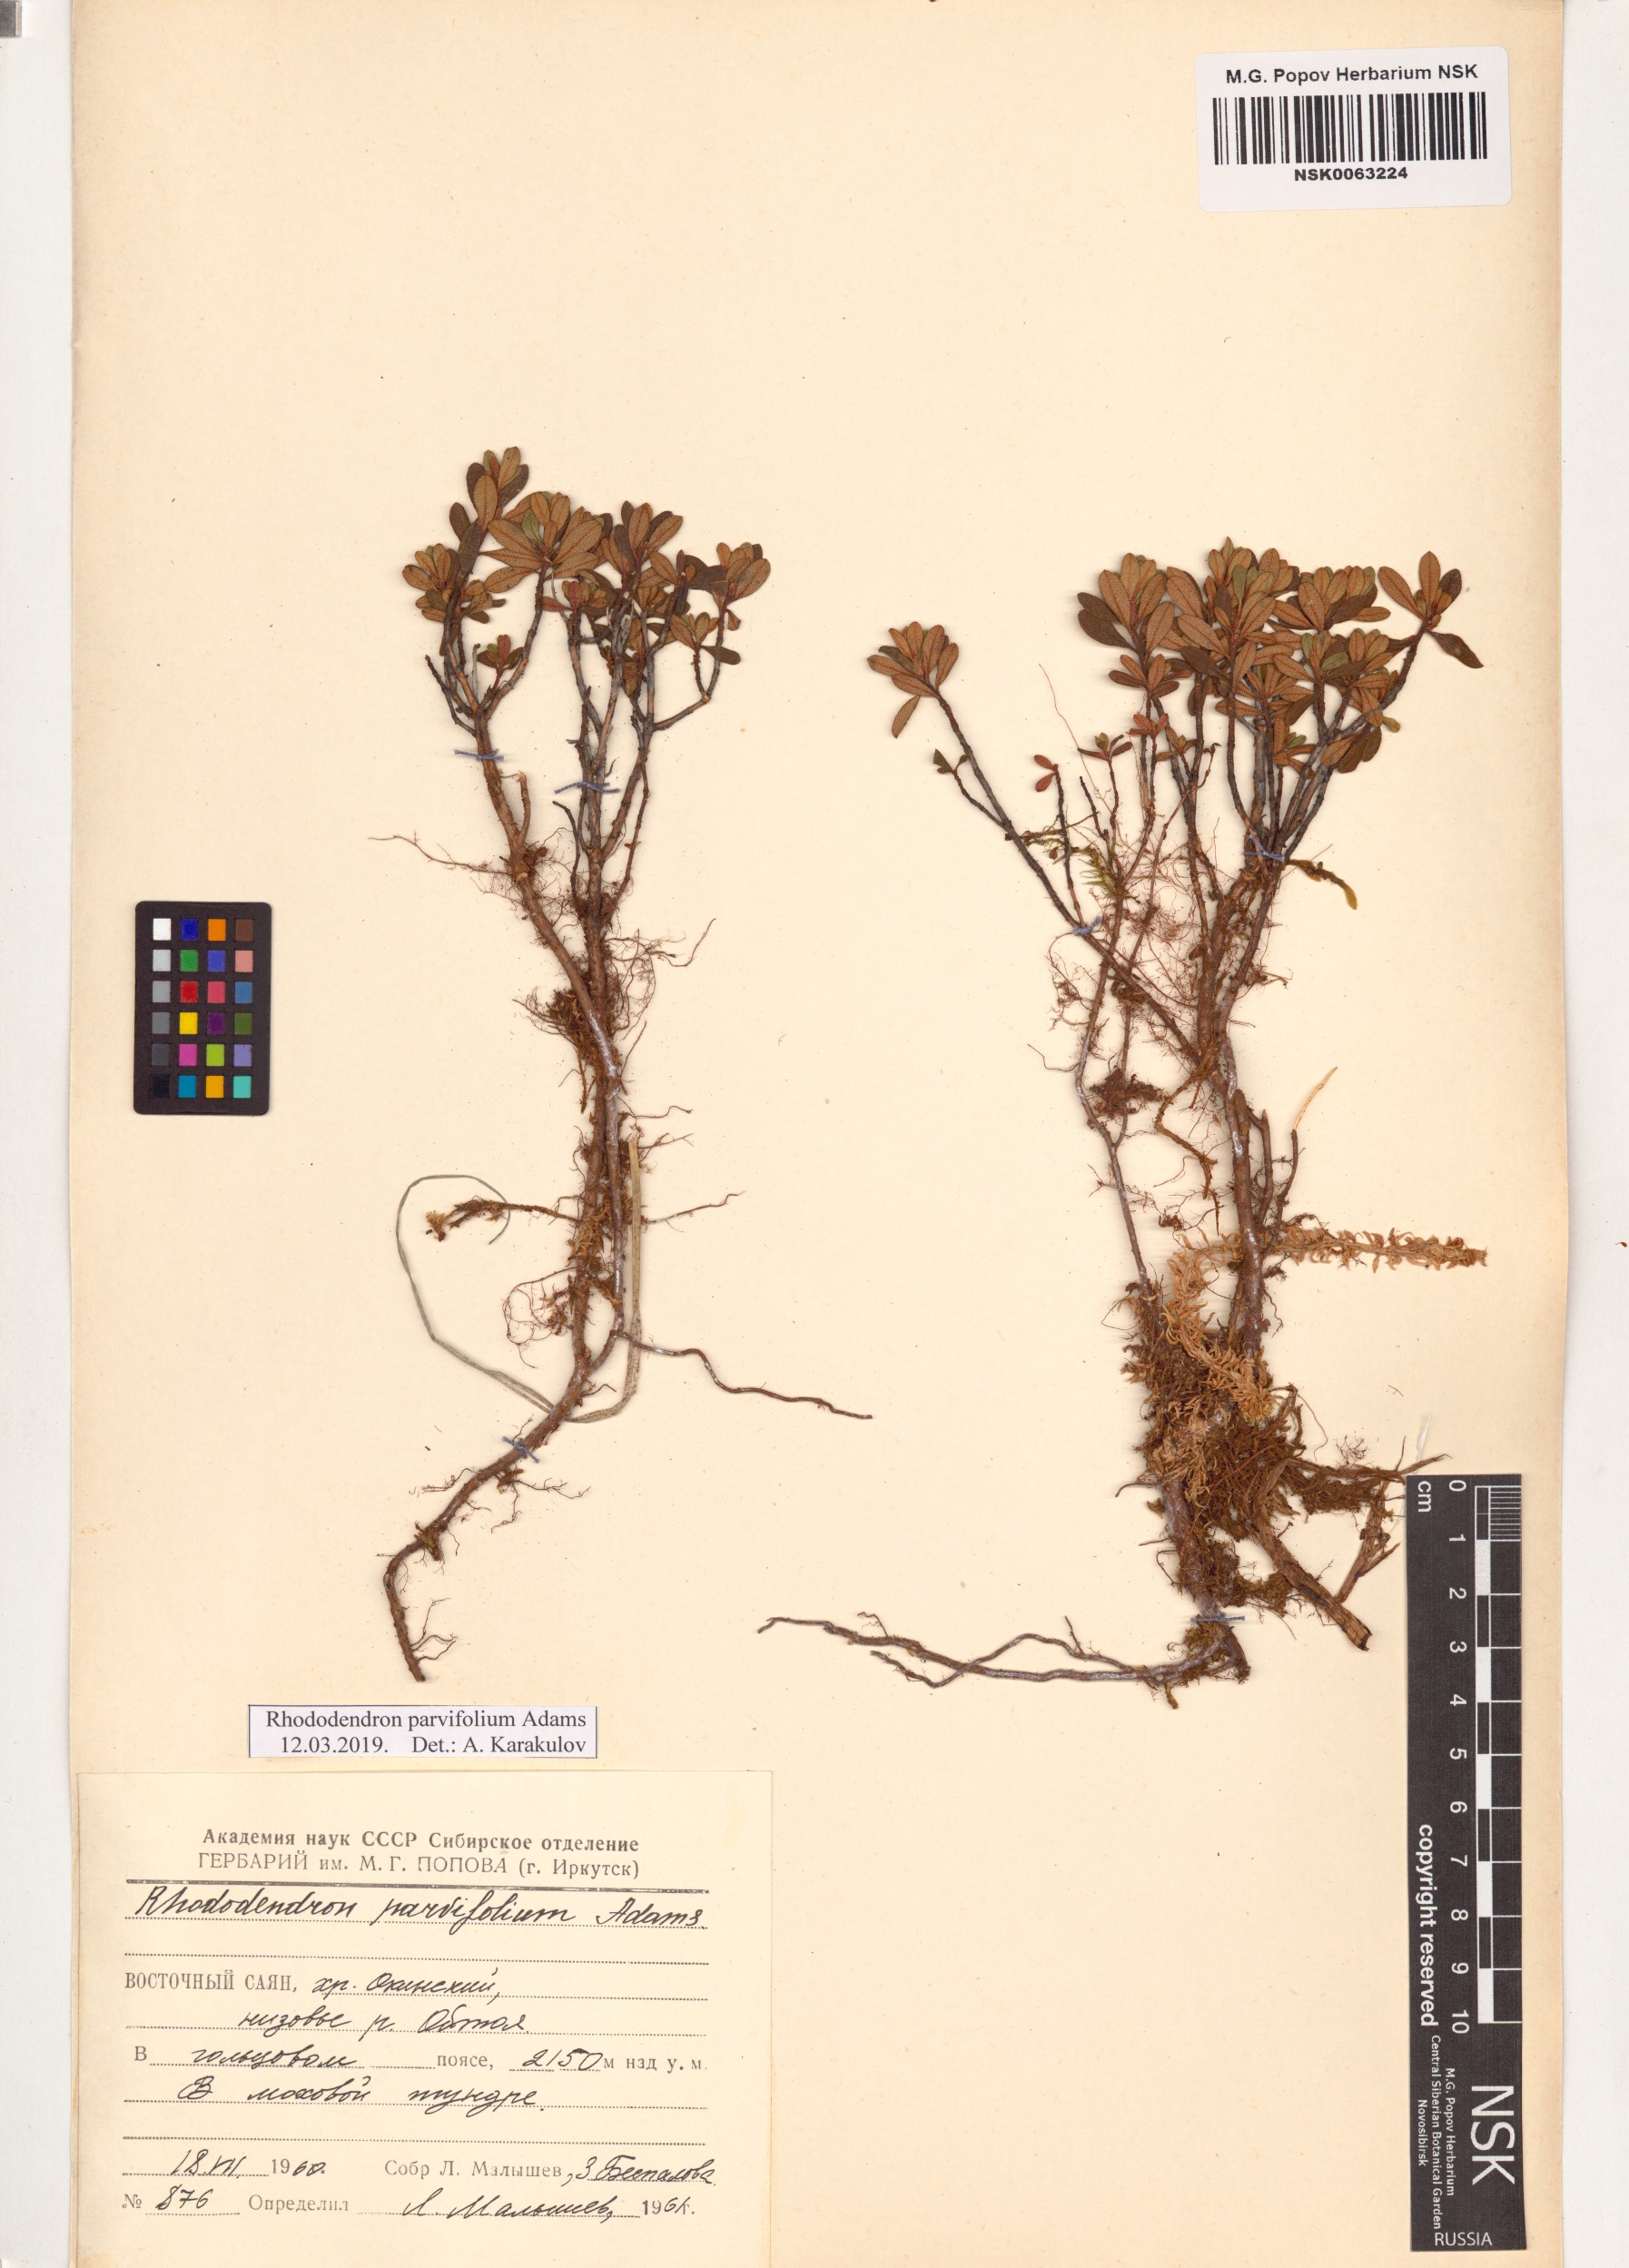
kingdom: Plantae
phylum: Tracheophyta
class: Magnoliopsida
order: Ericales
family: Ericaceae
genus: Rhododendron
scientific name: Rhododendron parvifolium
